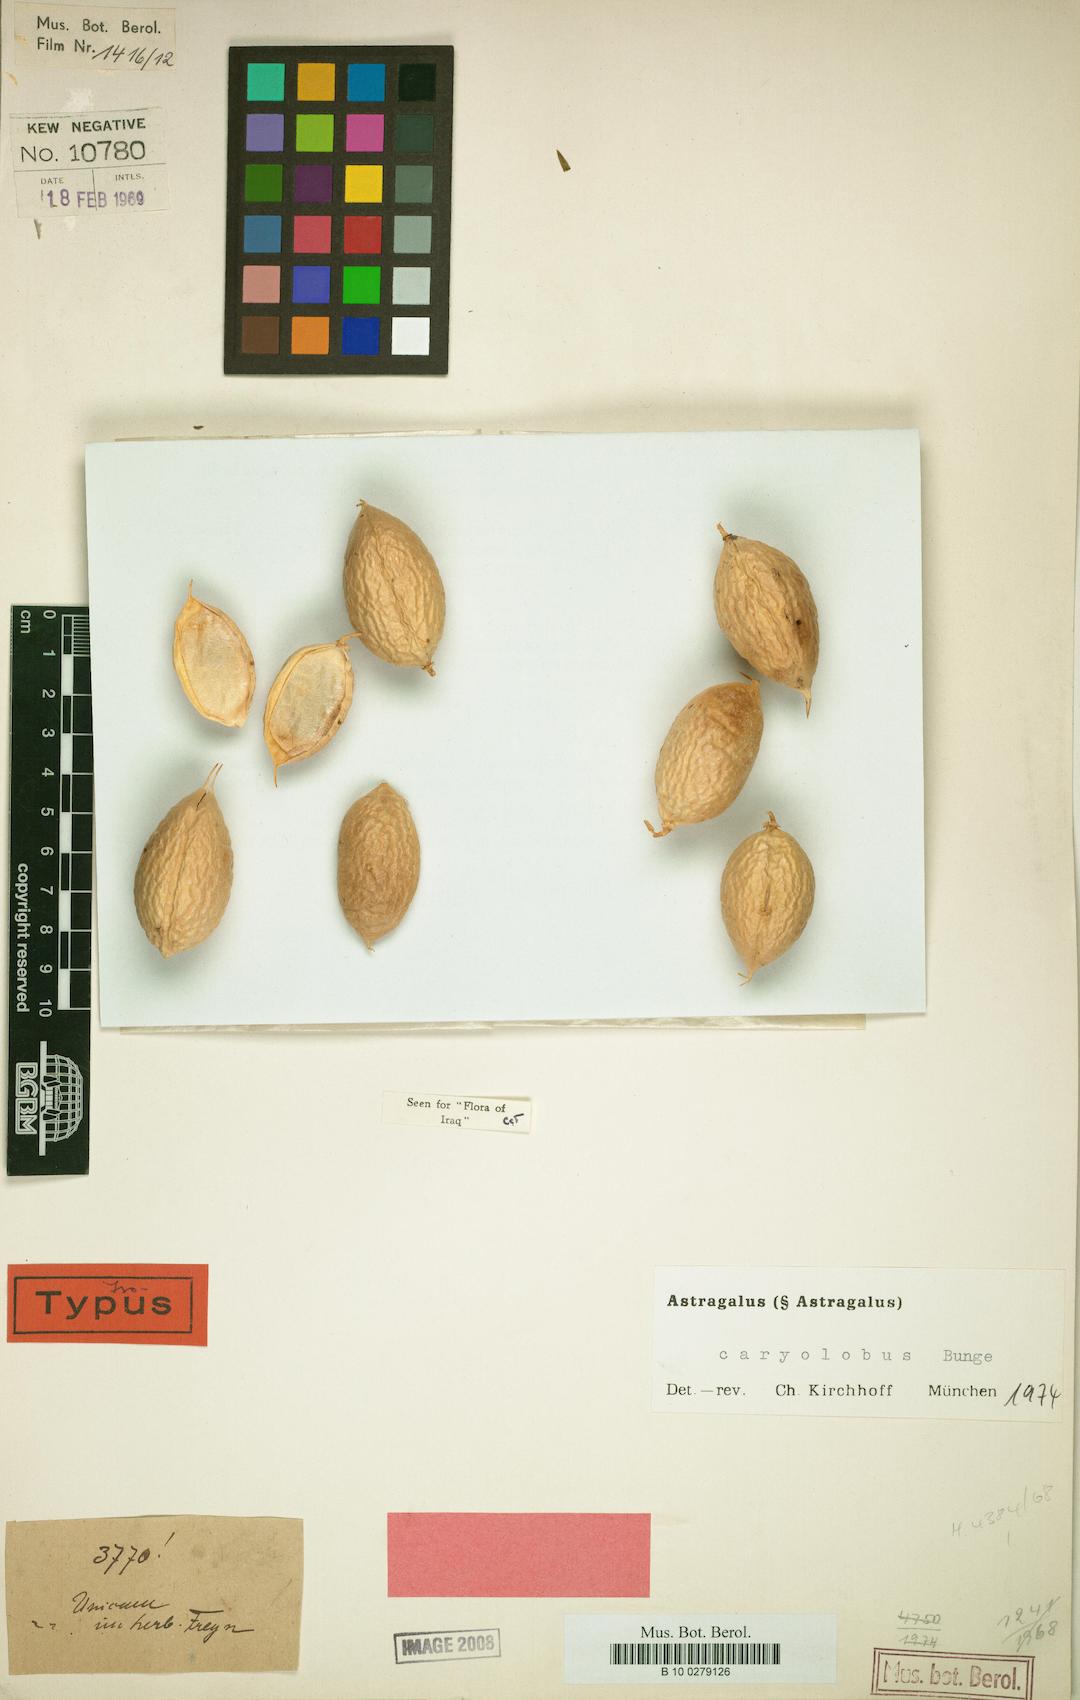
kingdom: Plantae
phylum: Tracheophyta
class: Magnoliopsida
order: Fabales
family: Fabaceae
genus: Astragalus
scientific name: Astragalus caryolobus
